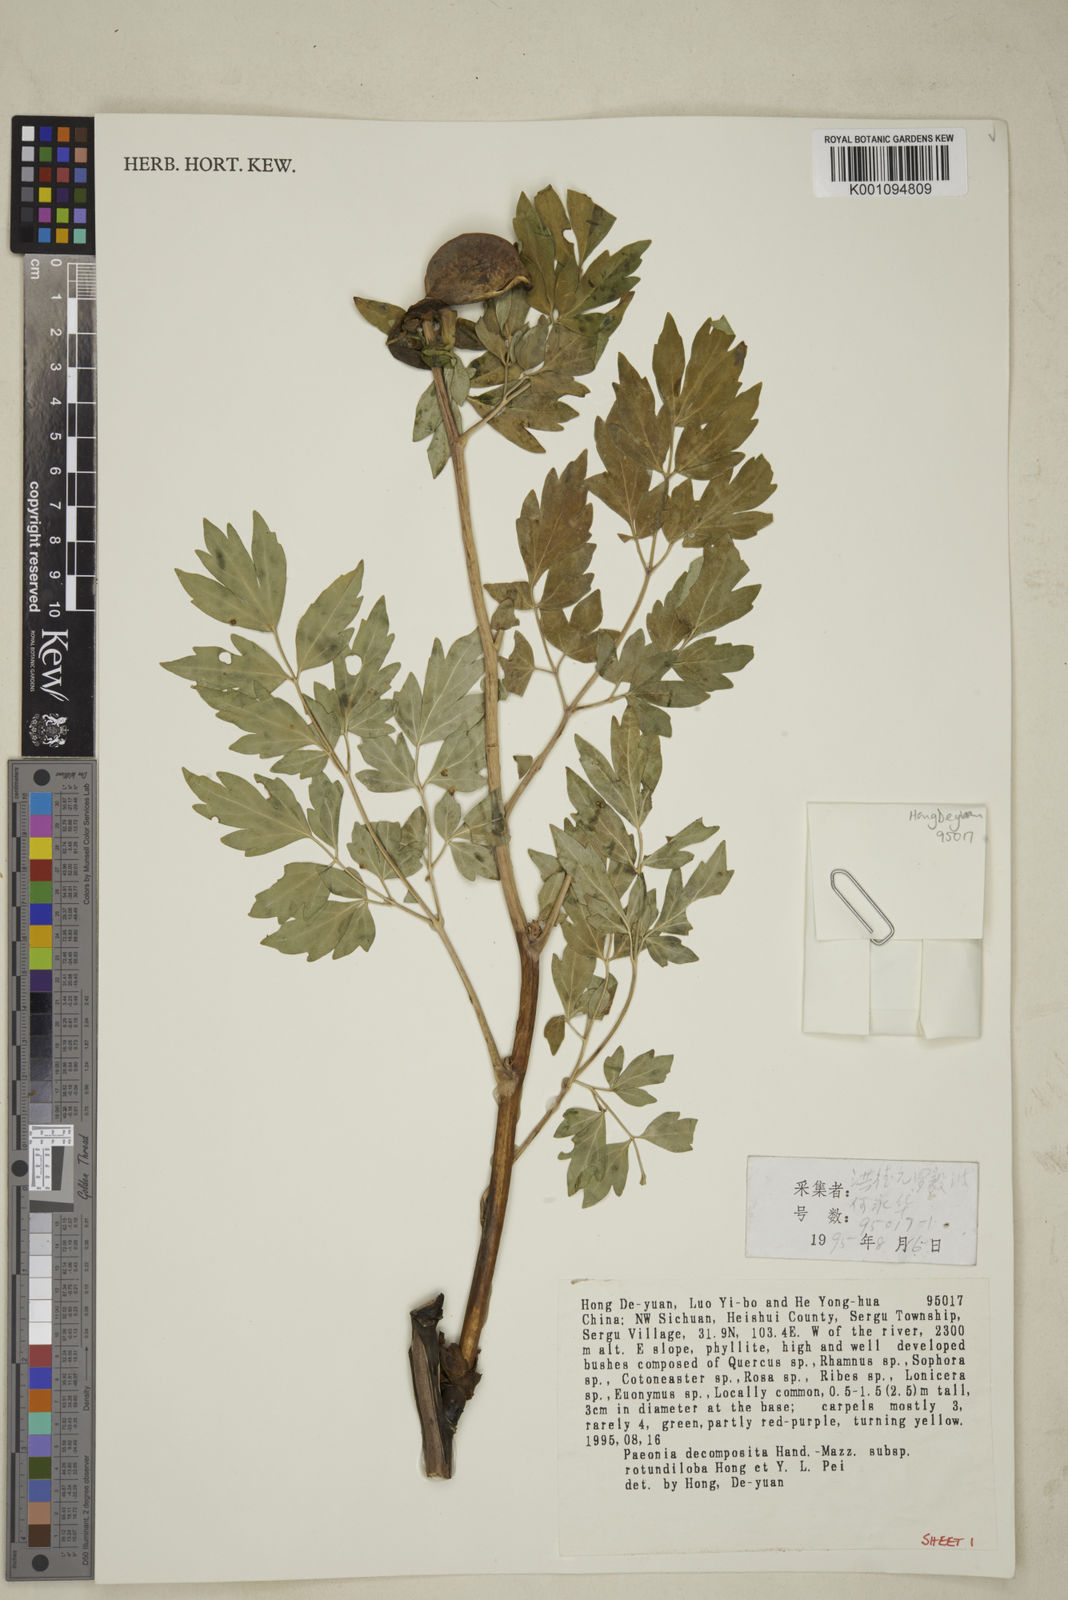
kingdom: Plantae
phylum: Tracheophyta
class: Magnoliopsida
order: Saxifragales
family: Paeoniaceae
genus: Paeonia
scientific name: Paeonia suffruticosa
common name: Moutan peony
